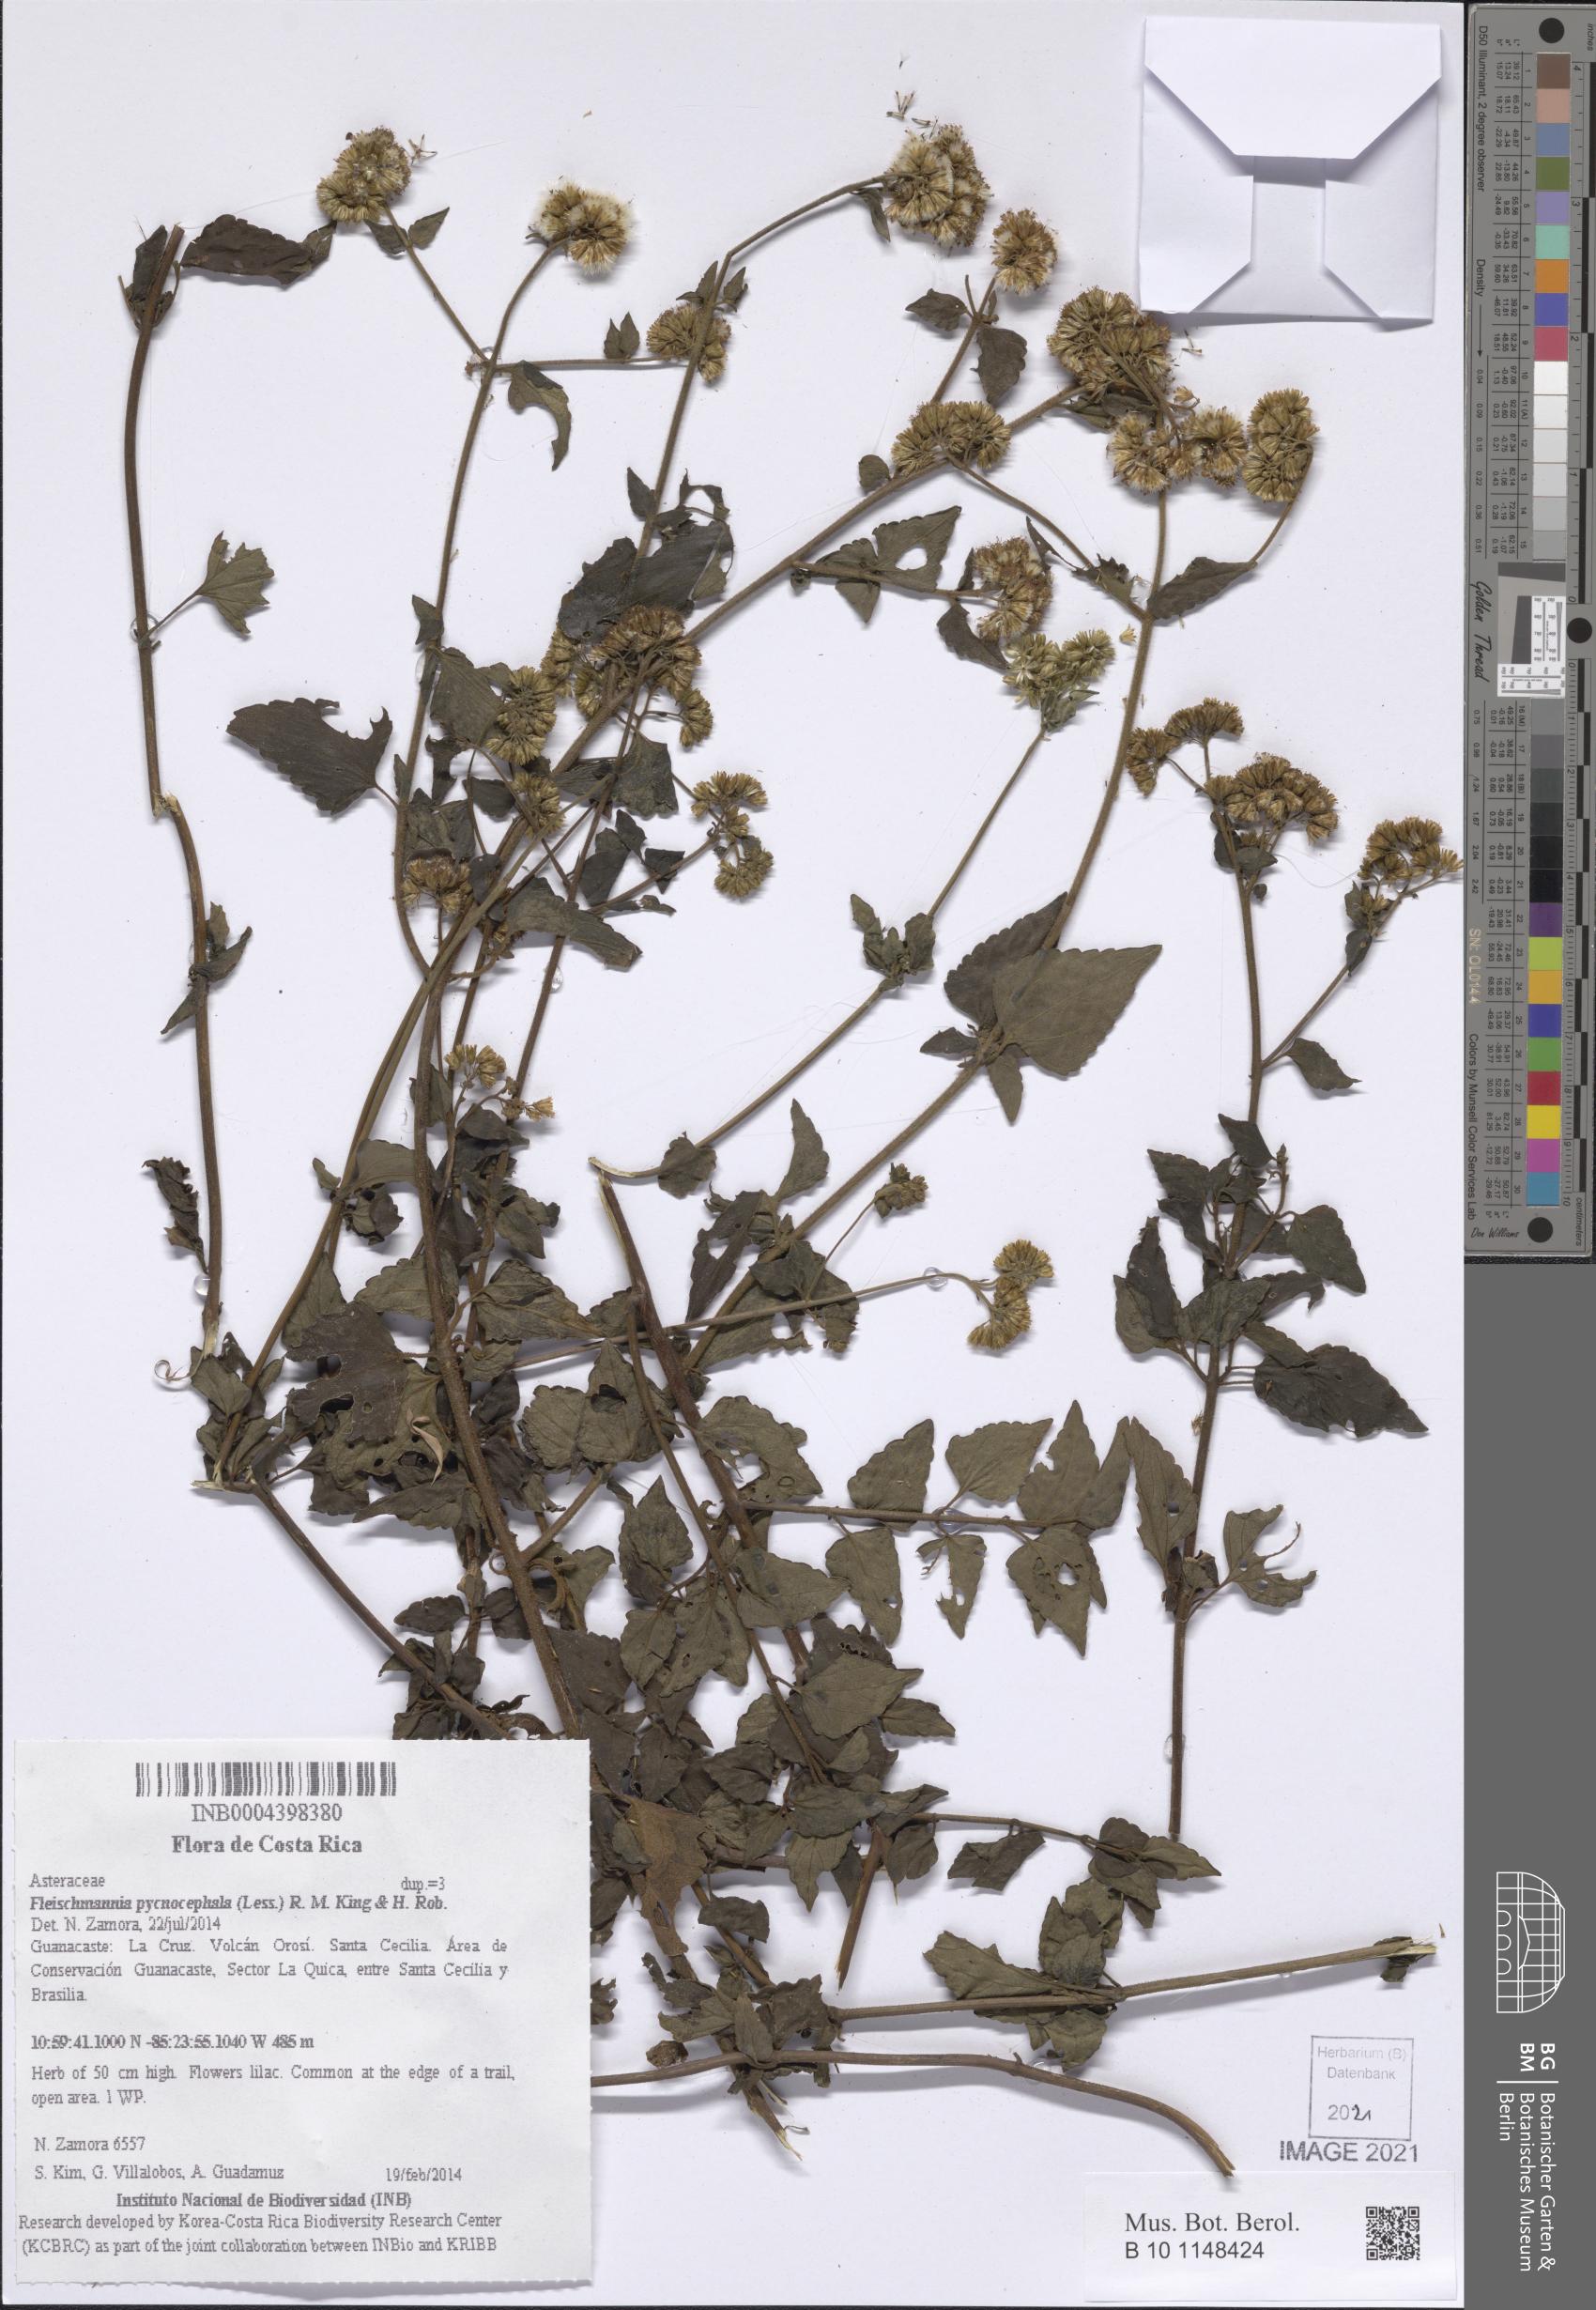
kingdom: Plantae
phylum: Tracheophyta
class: Magnoliopsida
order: Asterales
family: Asteraceae
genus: Fleischmannia
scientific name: Fleischmannia pycnocephala
